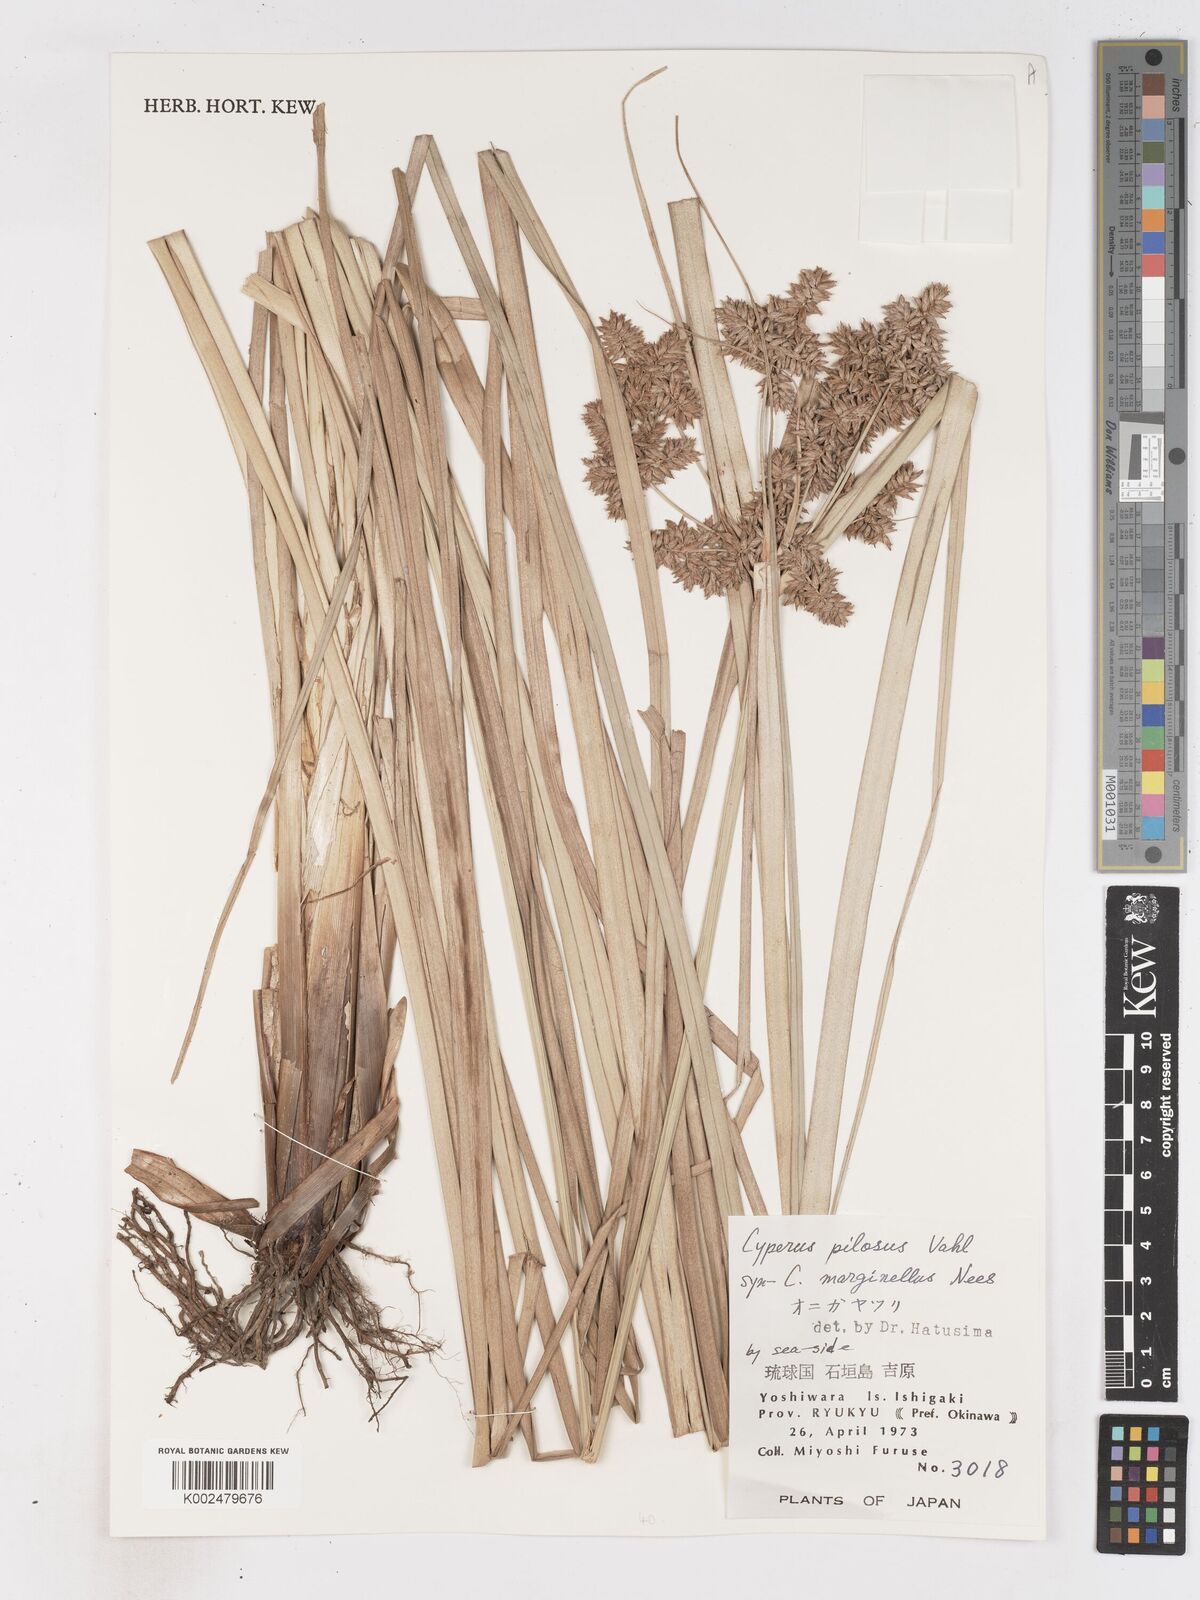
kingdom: Plantae
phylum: Tracheophyta
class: Liliopsida
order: Poales
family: Cyperaceae
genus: Cyperus
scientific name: Cyperus pilosus
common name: Fuzzy flatsedge
